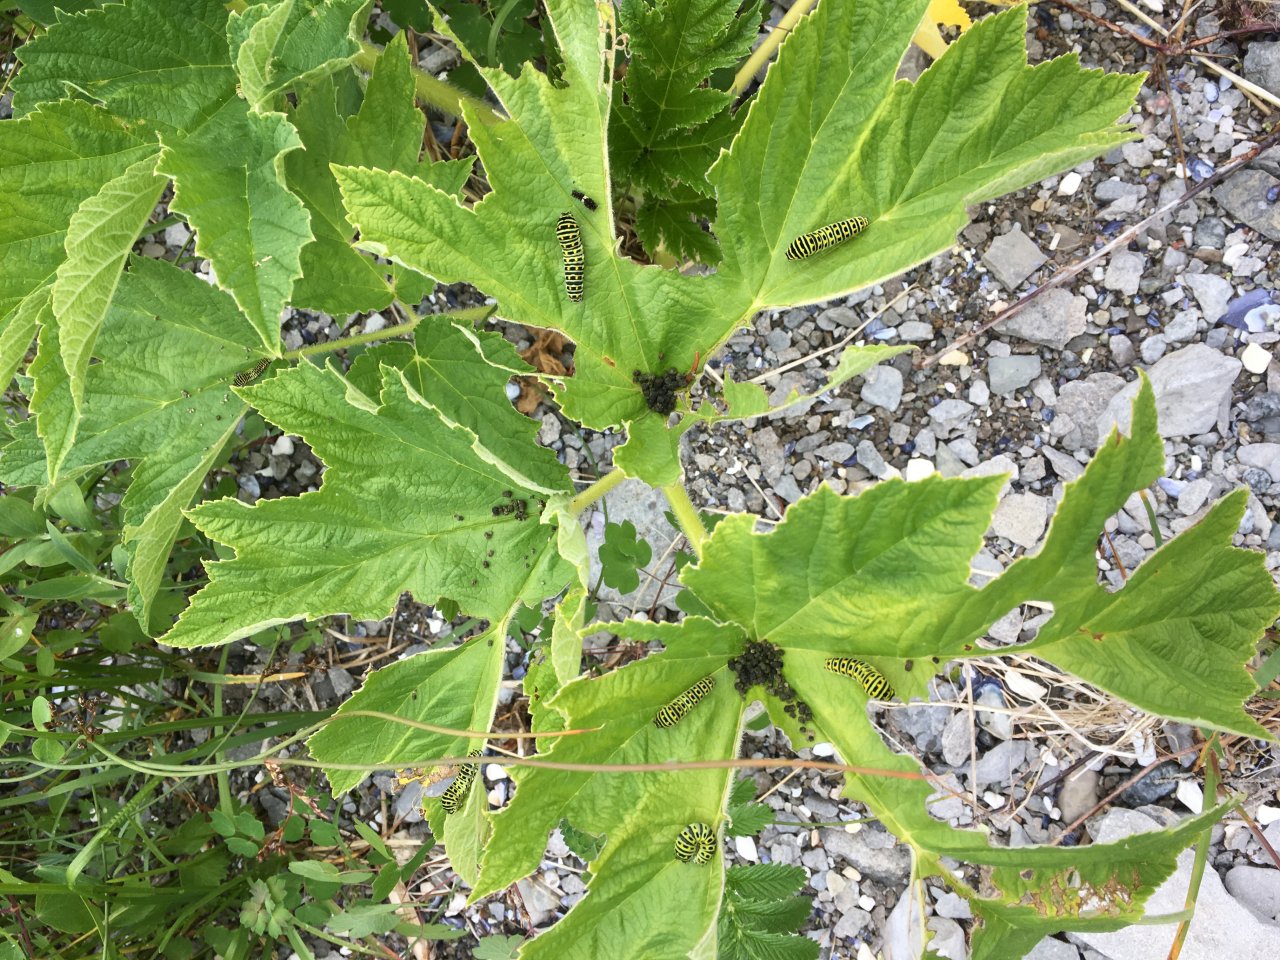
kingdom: Animalia
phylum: Arthropoda
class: Insecta
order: Lepidoptera
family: Papilionidae
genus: Papilio
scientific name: Papilio brevicauda
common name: Short-tailed Swallowtail
